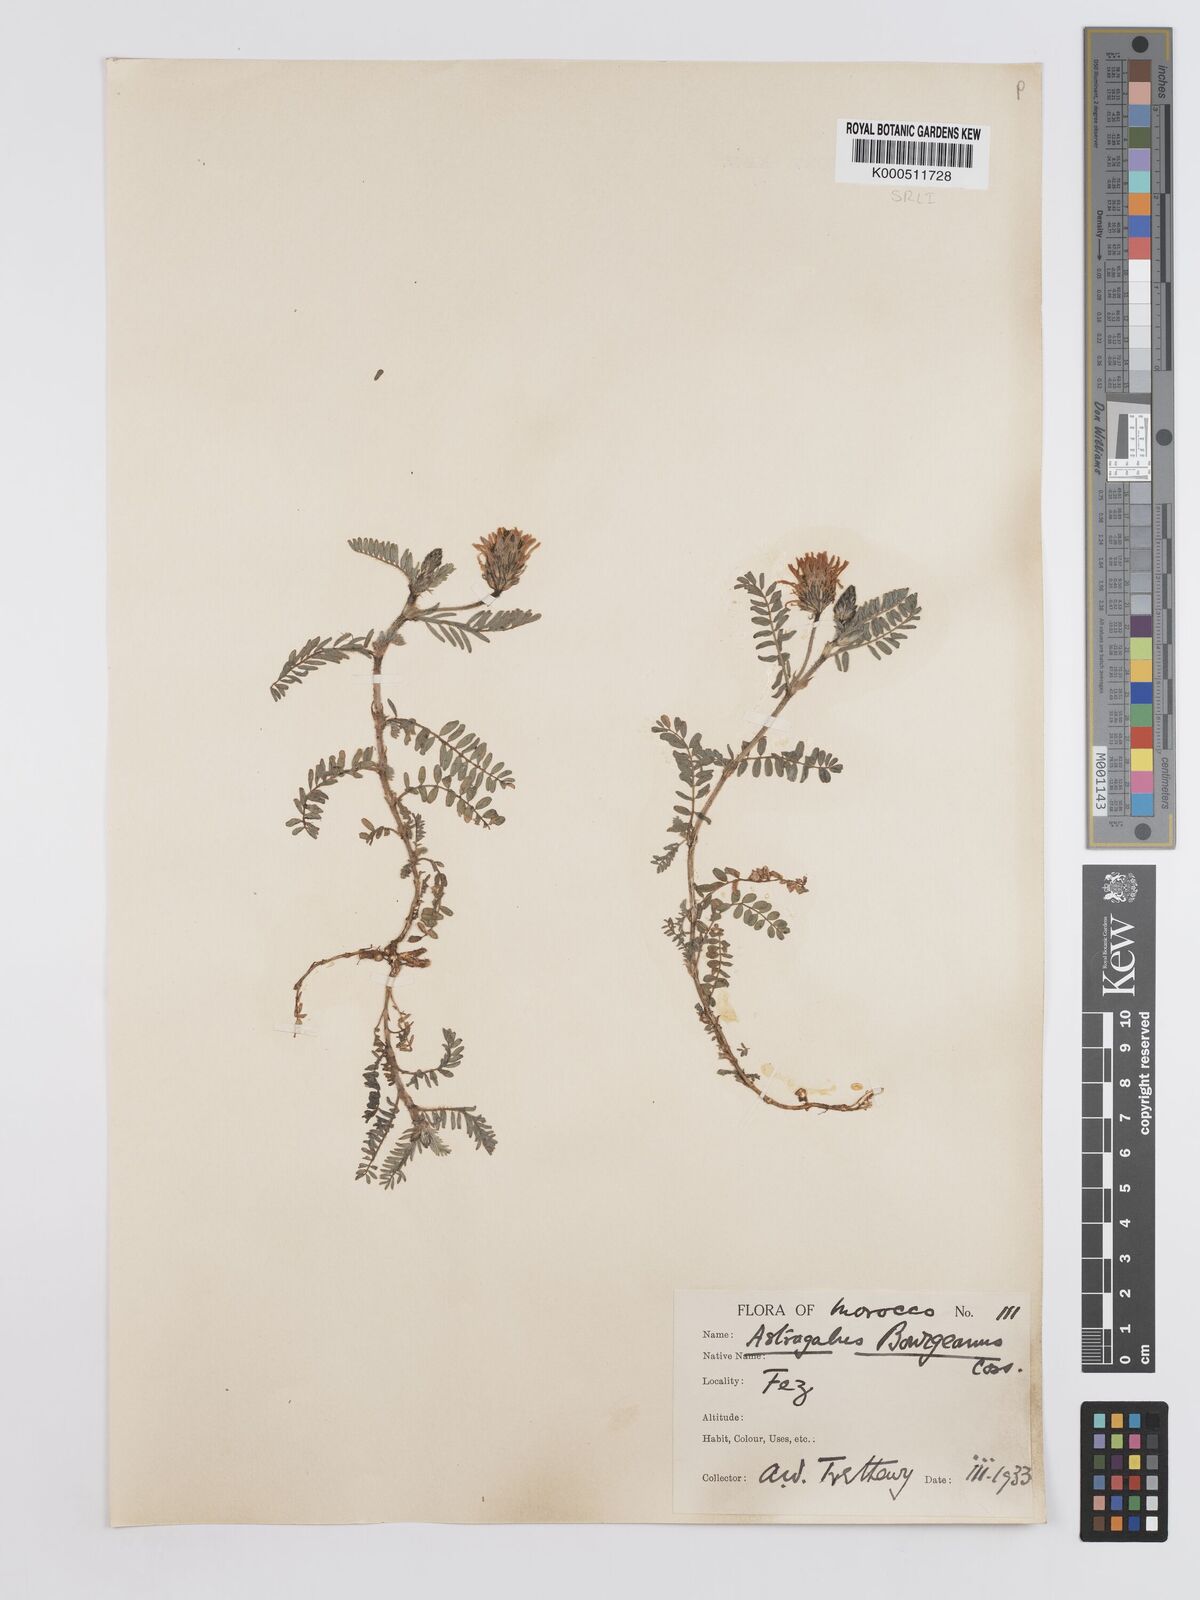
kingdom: Plantae
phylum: Tracheophyta
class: Magnoliopsida
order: Fabales
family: Fabaceae
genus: Astragalus
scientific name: Astragalus bourgaeanus
